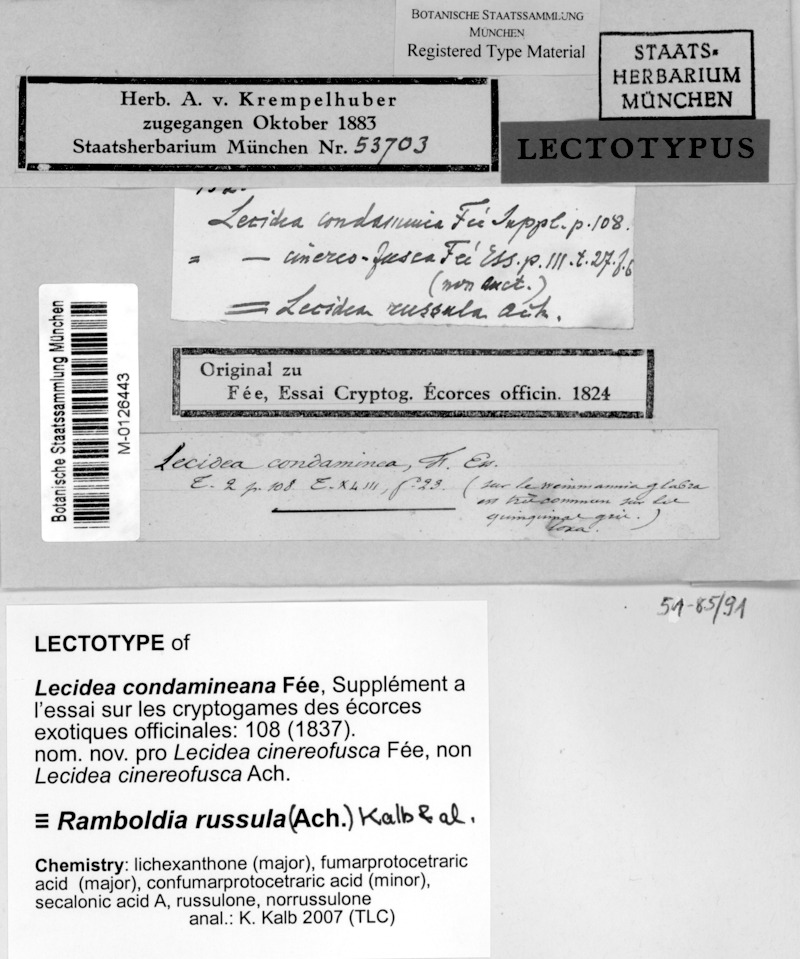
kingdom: Fungi
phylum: Ascomycota
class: Lecanoromycetes
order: Lecanorales
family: Ramboldiaceae
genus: Ramboldia
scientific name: Ramboldia russula
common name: Red heads
